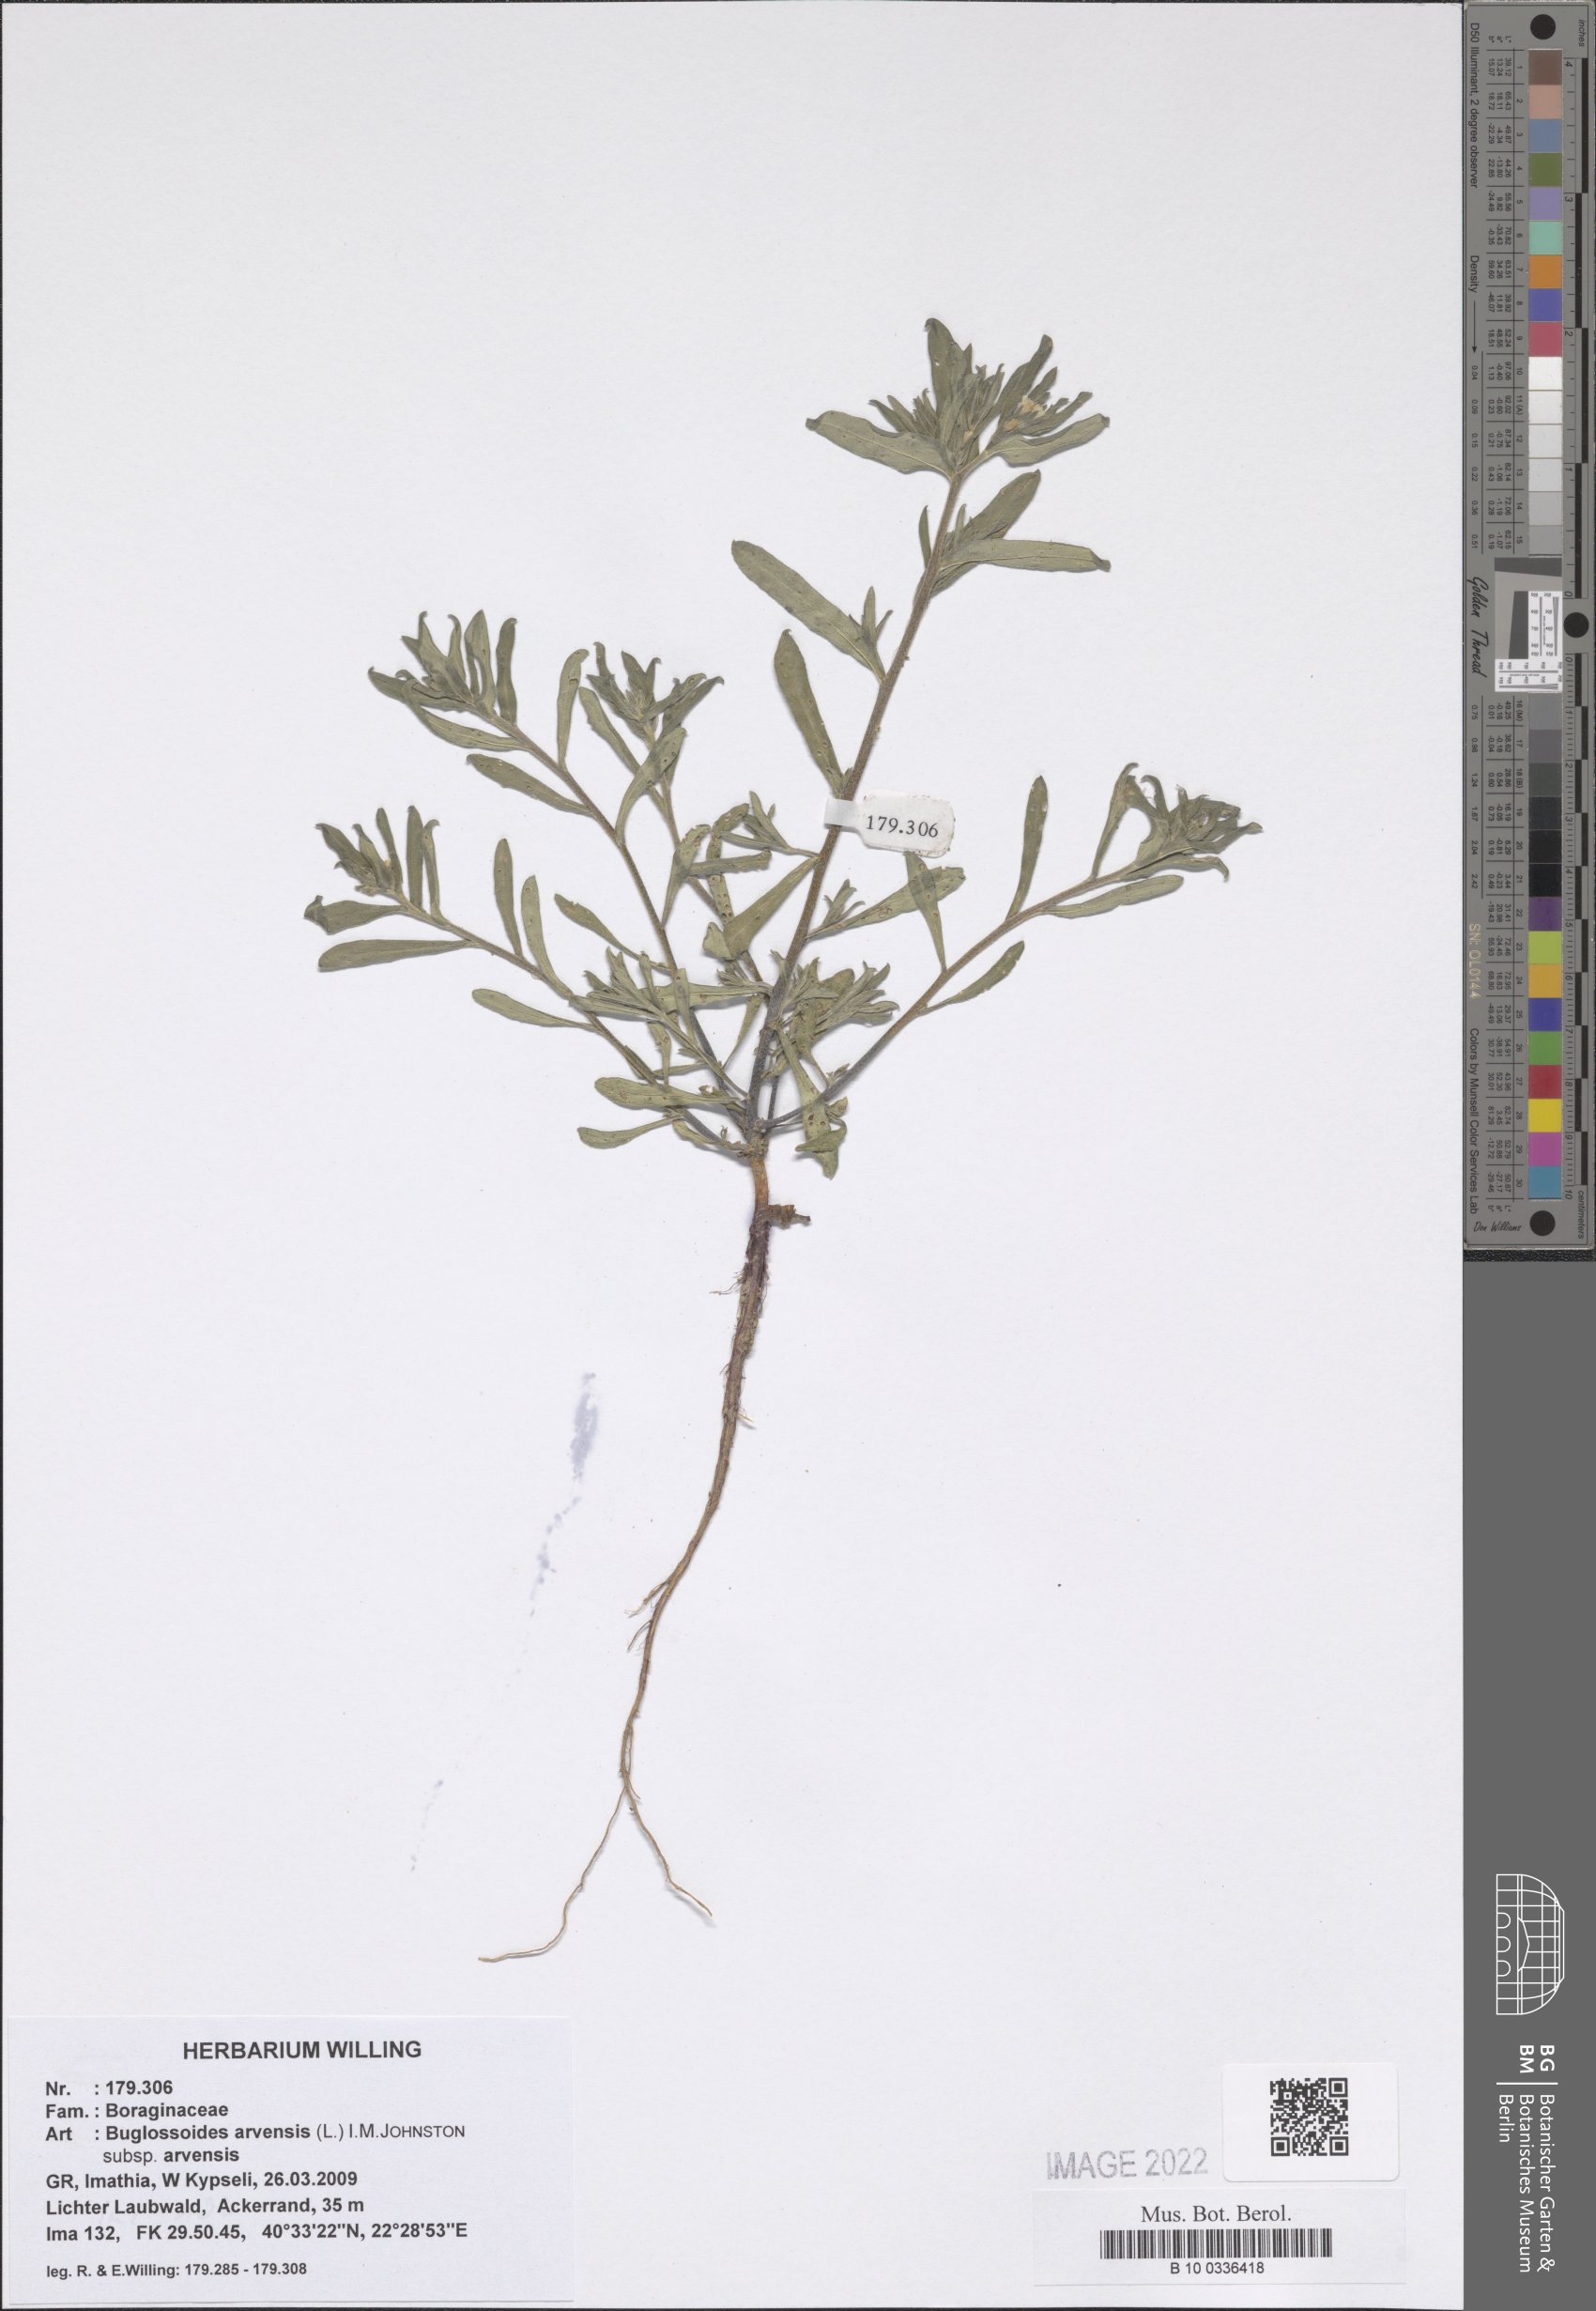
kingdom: Plantae
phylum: Tracheophyta
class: Magnoliopsida
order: Boraginales
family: Boraginaceae
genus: Buglossoides
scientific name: Buglossoides arvensis
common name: Corn gromwell
